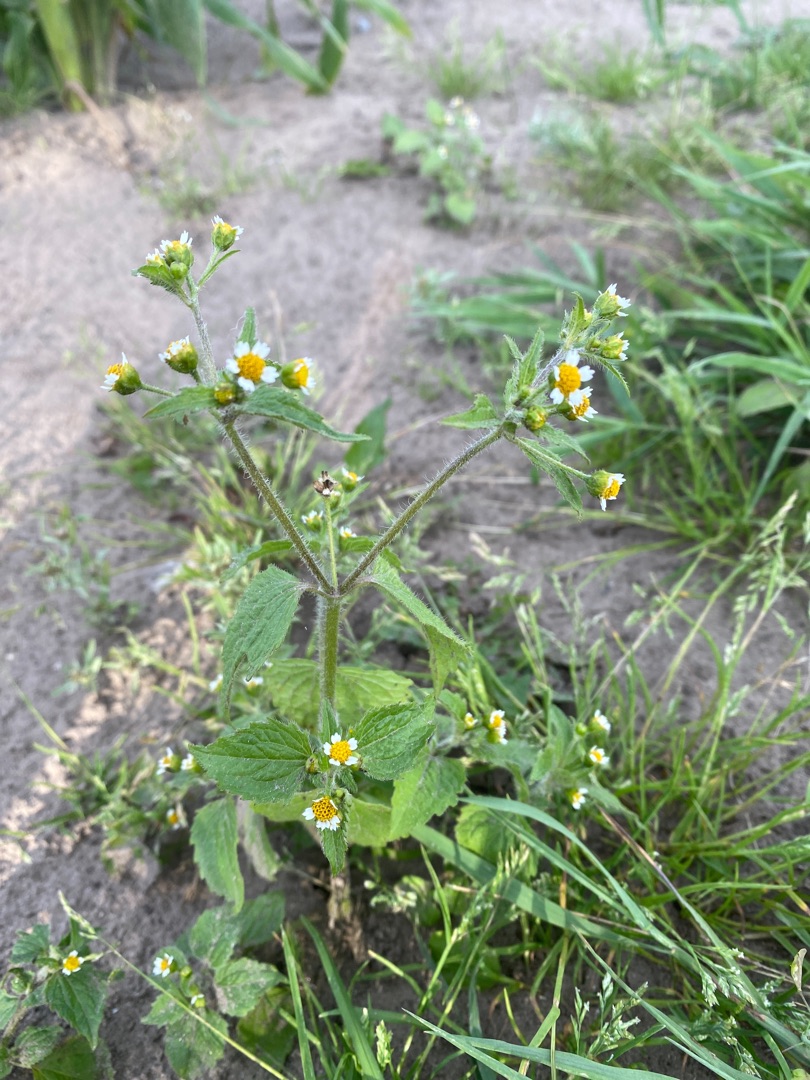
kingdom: Plantae
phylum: Tracheophyta
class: Magnoliopsida
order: Asterales
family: Asteraceae
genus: Galinsoga
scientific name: Galinsoga quadriradiata
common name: Kirtel-kortstråle
